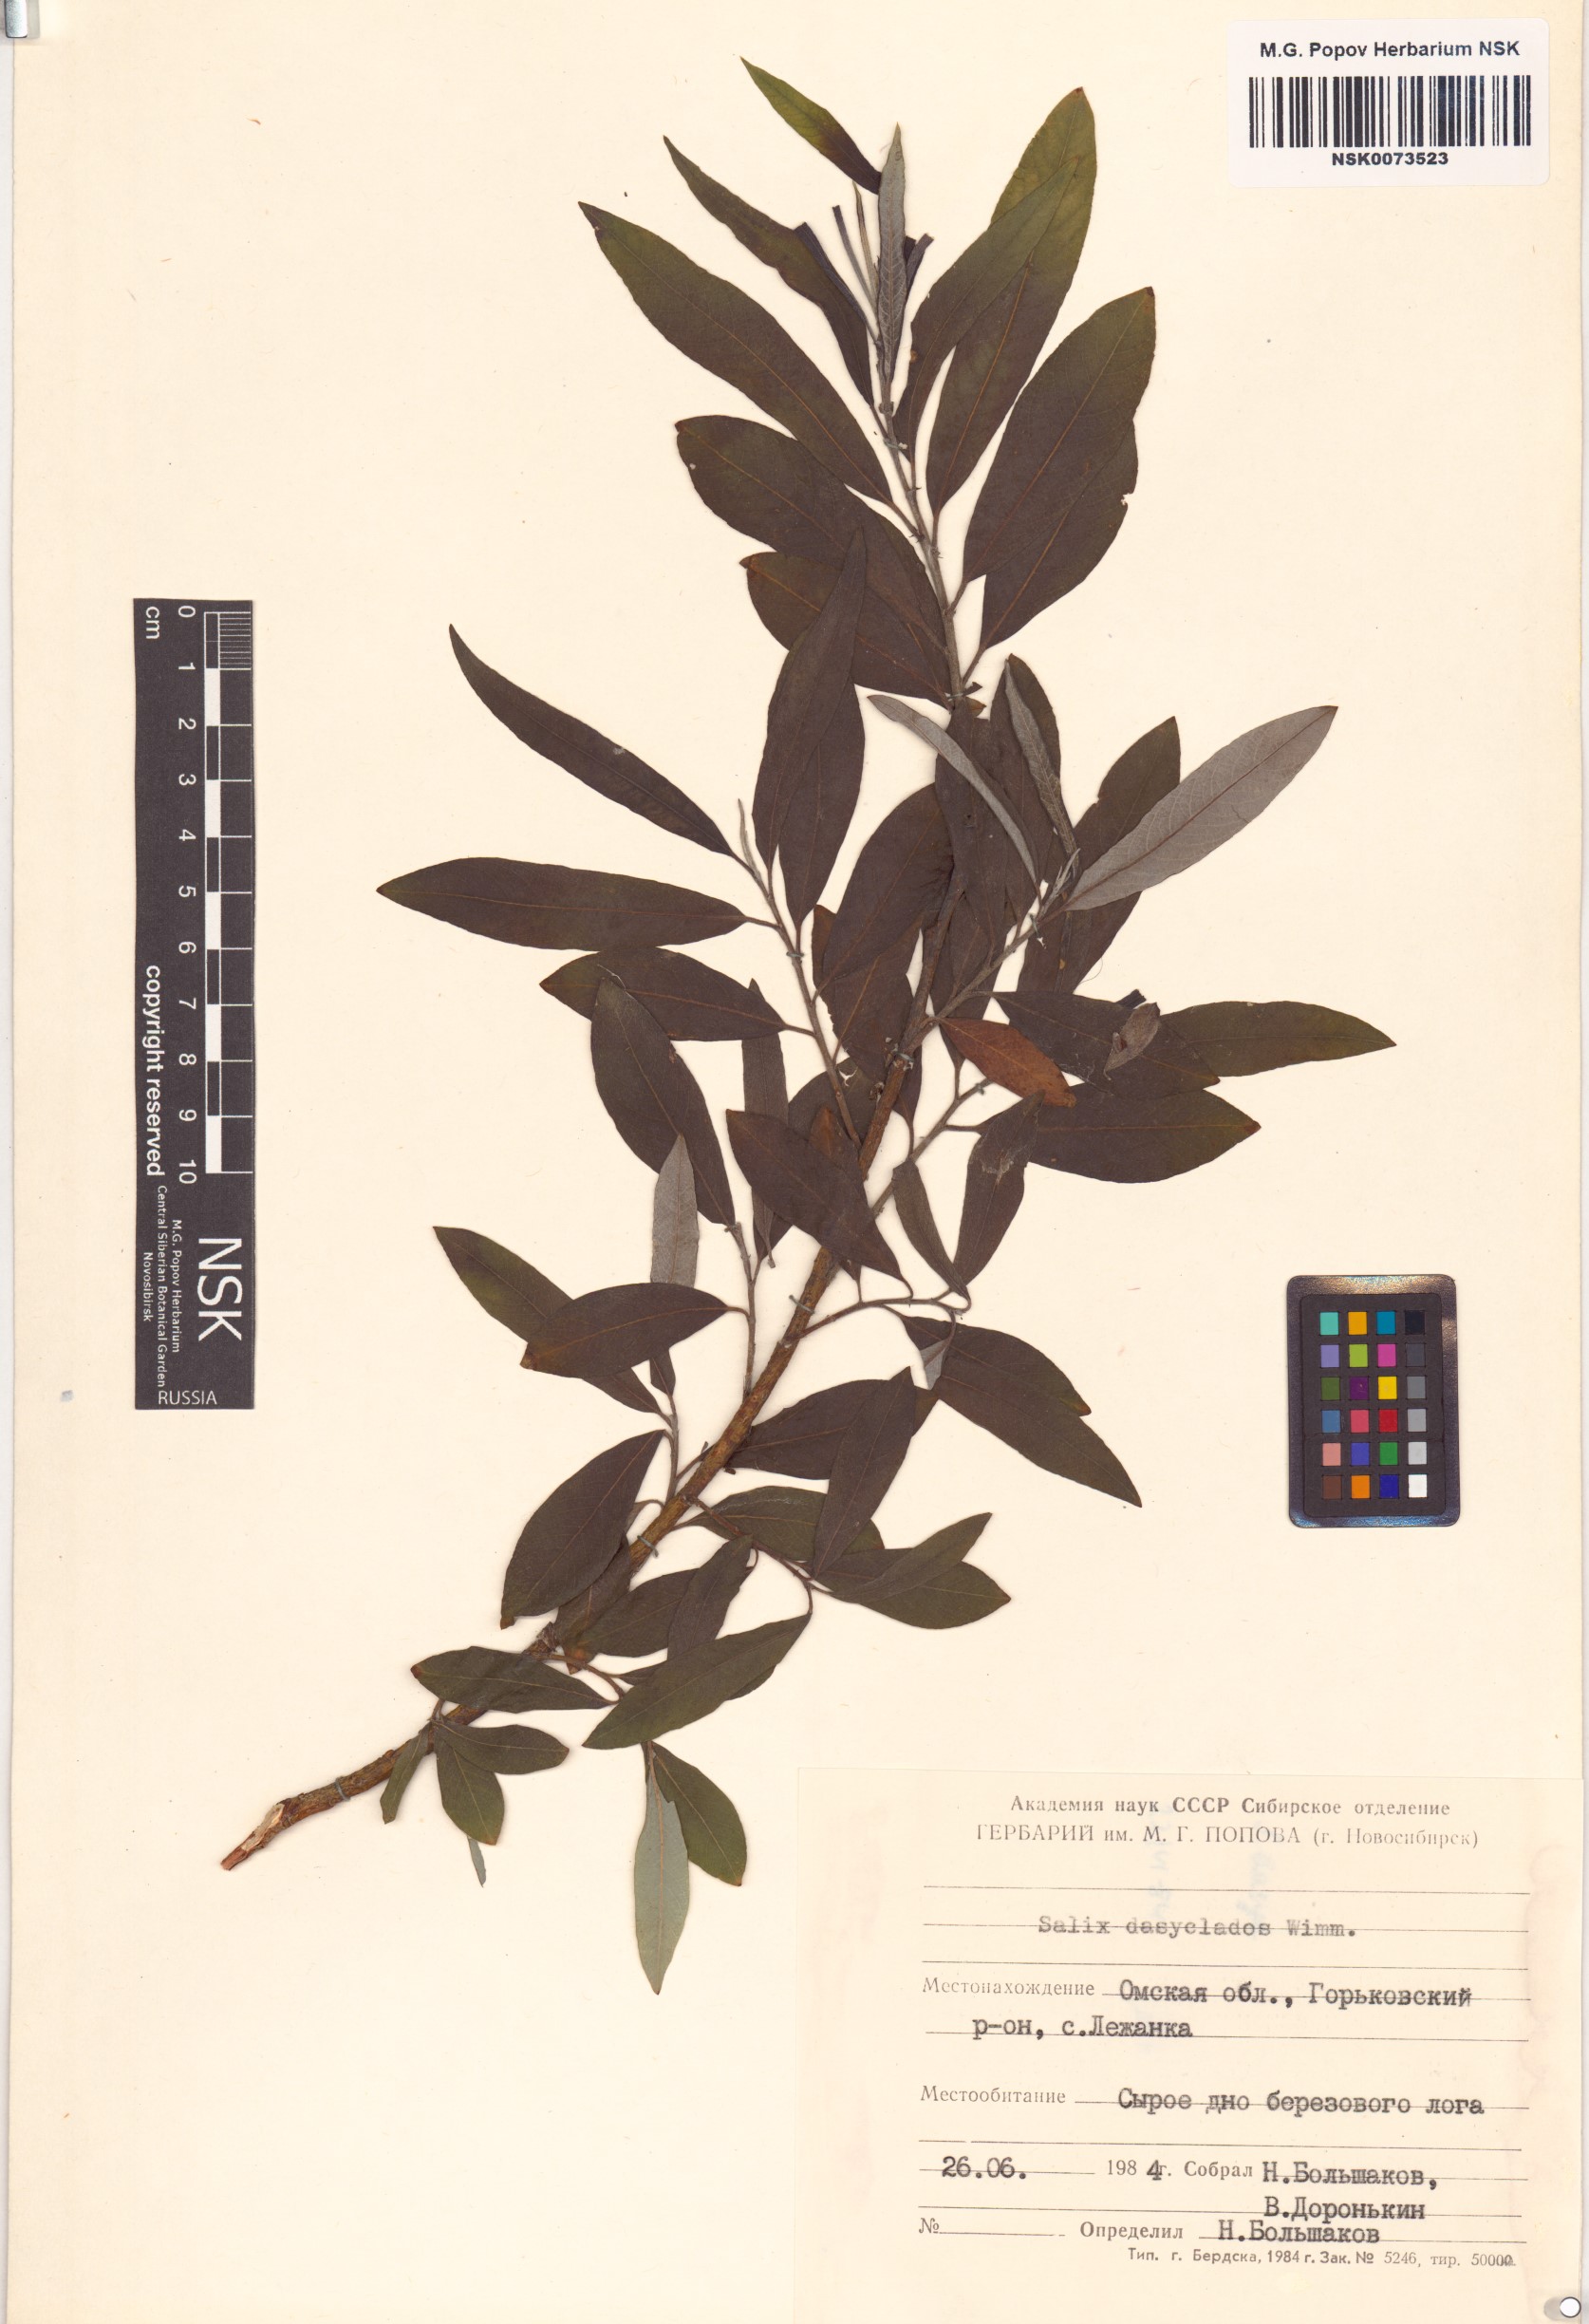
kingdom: Plantae
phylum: Tracheophyta
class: Magnoliopsida
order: Malpighiales
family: Salicaceae
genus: Salix
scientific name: Salix gmelinii
